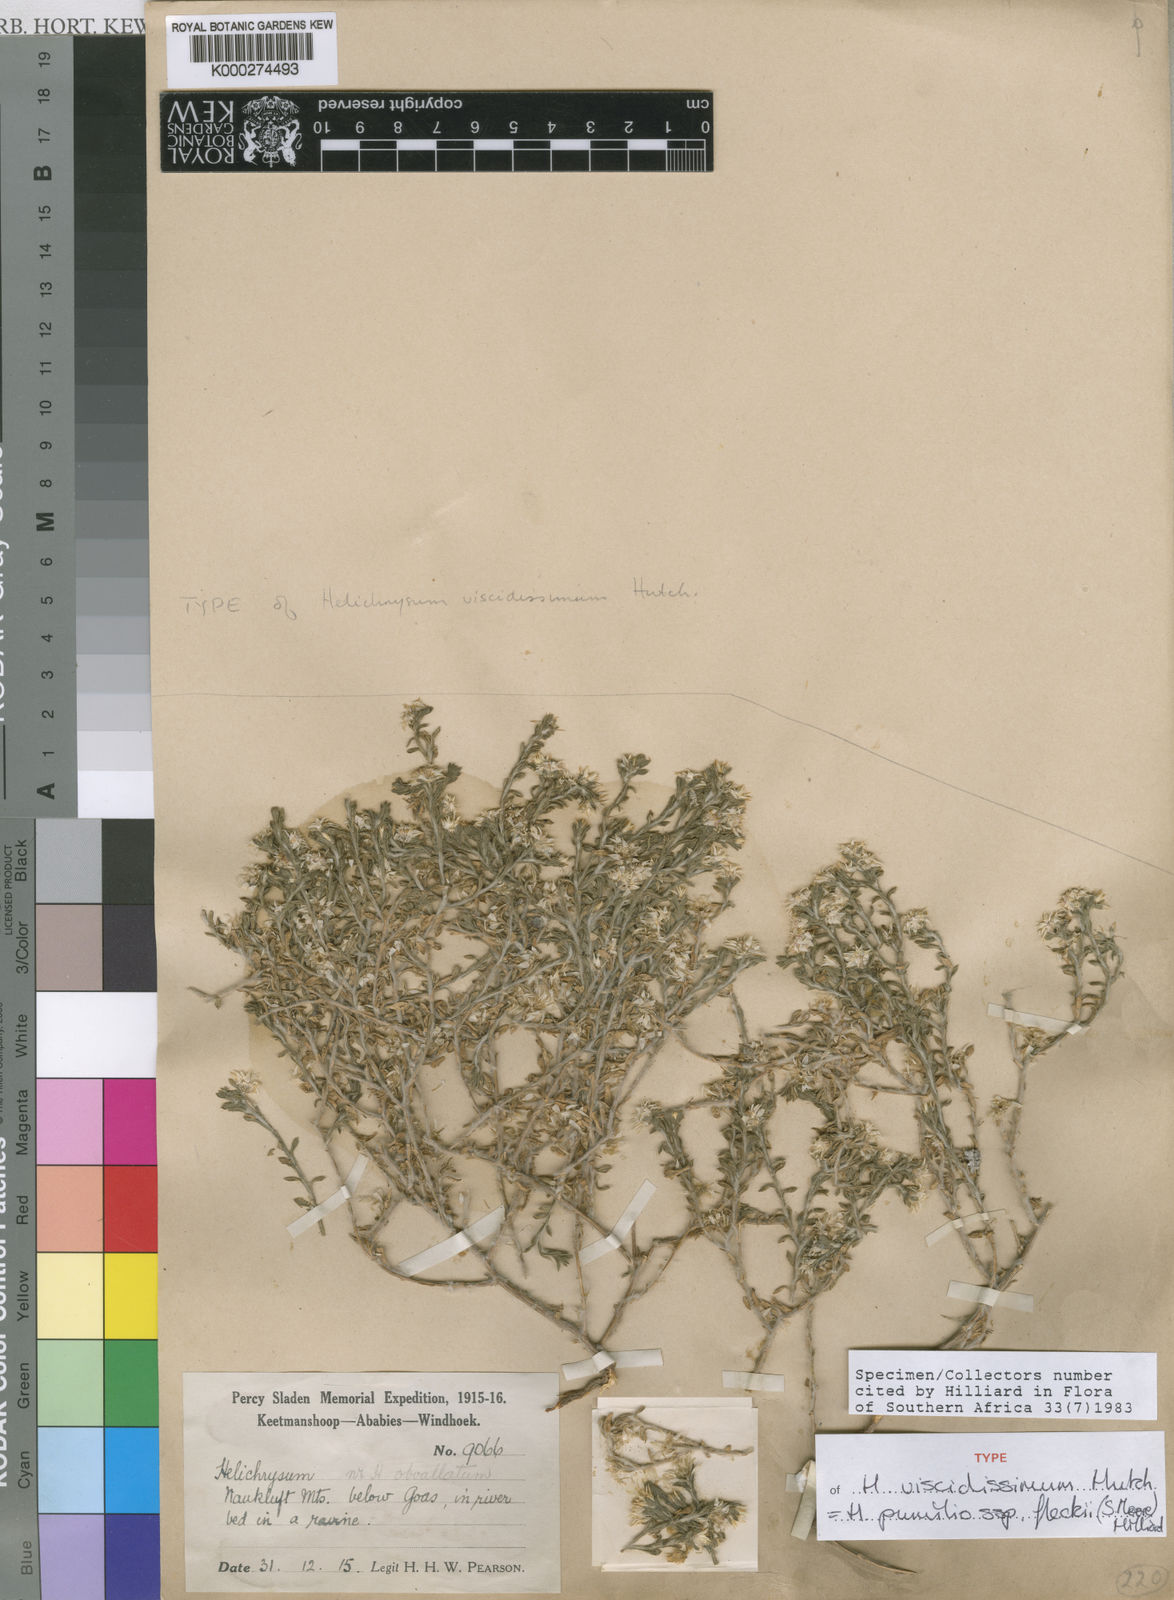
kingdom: Plantae
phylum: Tracheophyta
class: Magnoliopsida
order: Asterales
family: Asteraceae
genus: Helichrysum
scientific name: Helichrysum pumilio
